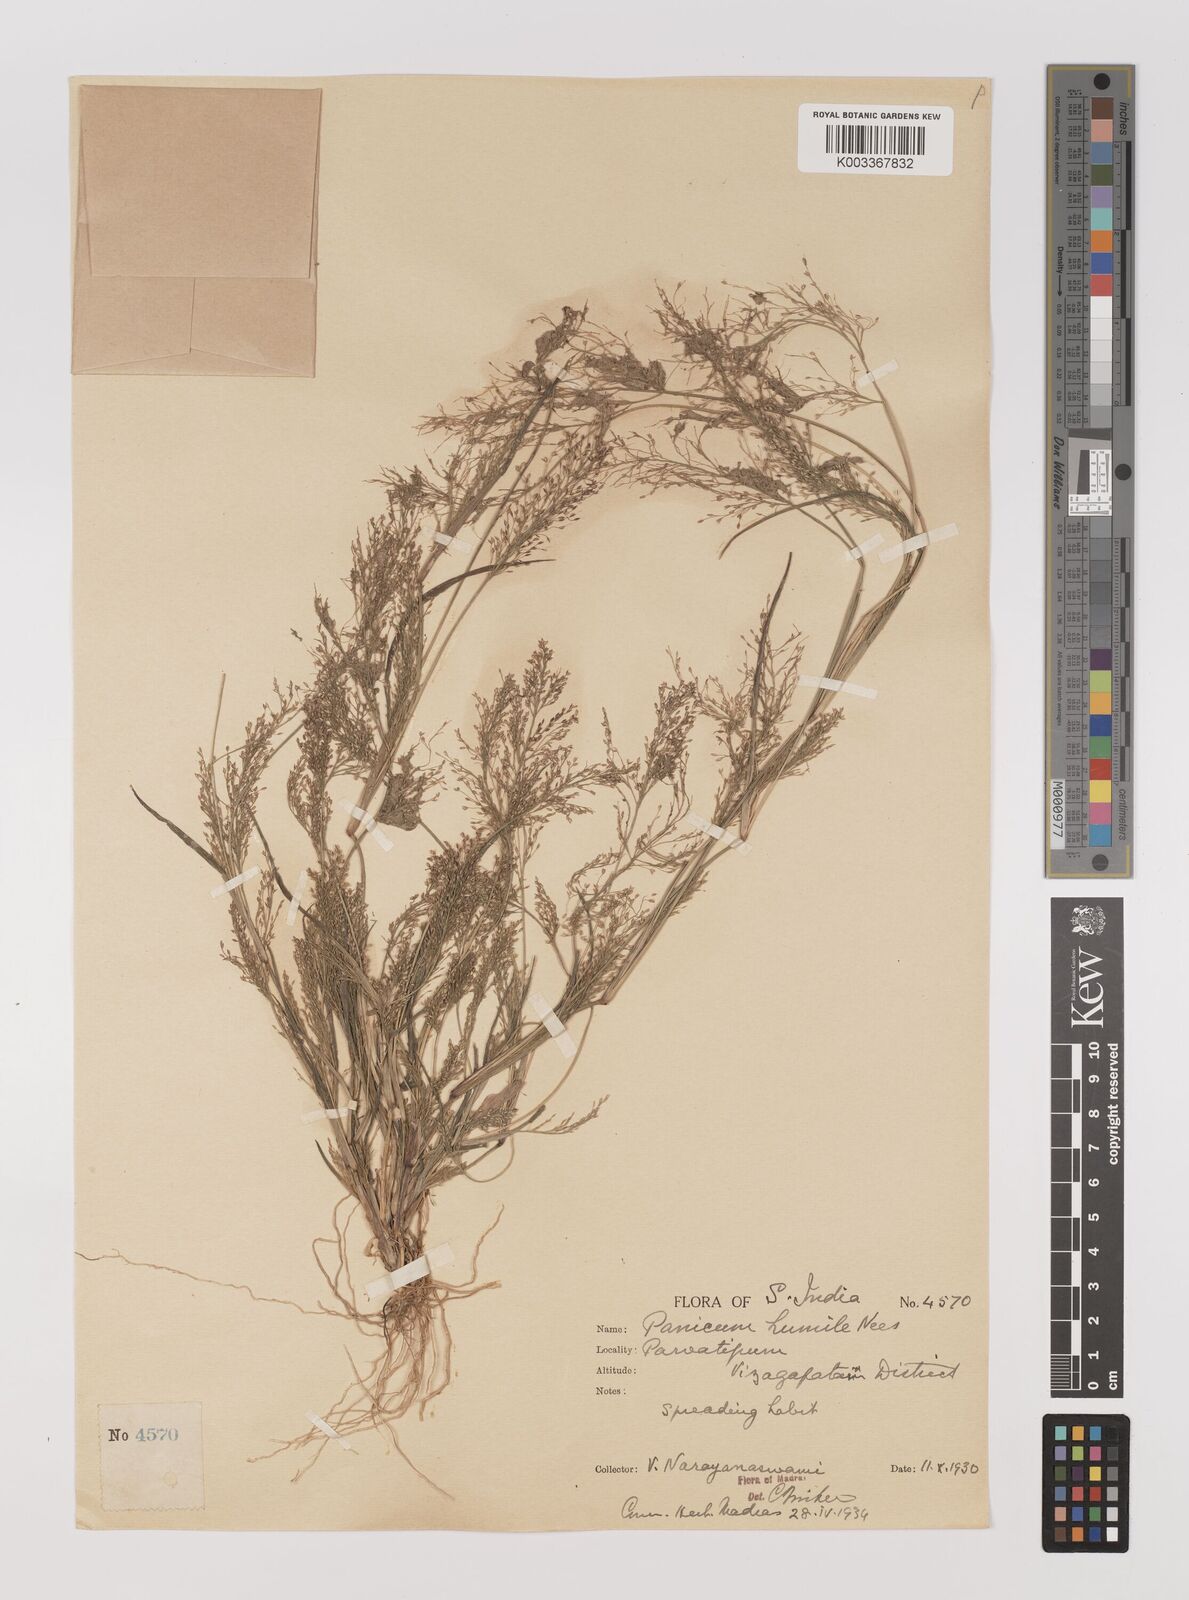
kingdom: Plantae
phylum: Tracheophyta
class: Liliopsida
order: Poales
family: Poaceae
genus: Panicum
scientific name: Panicum humile
